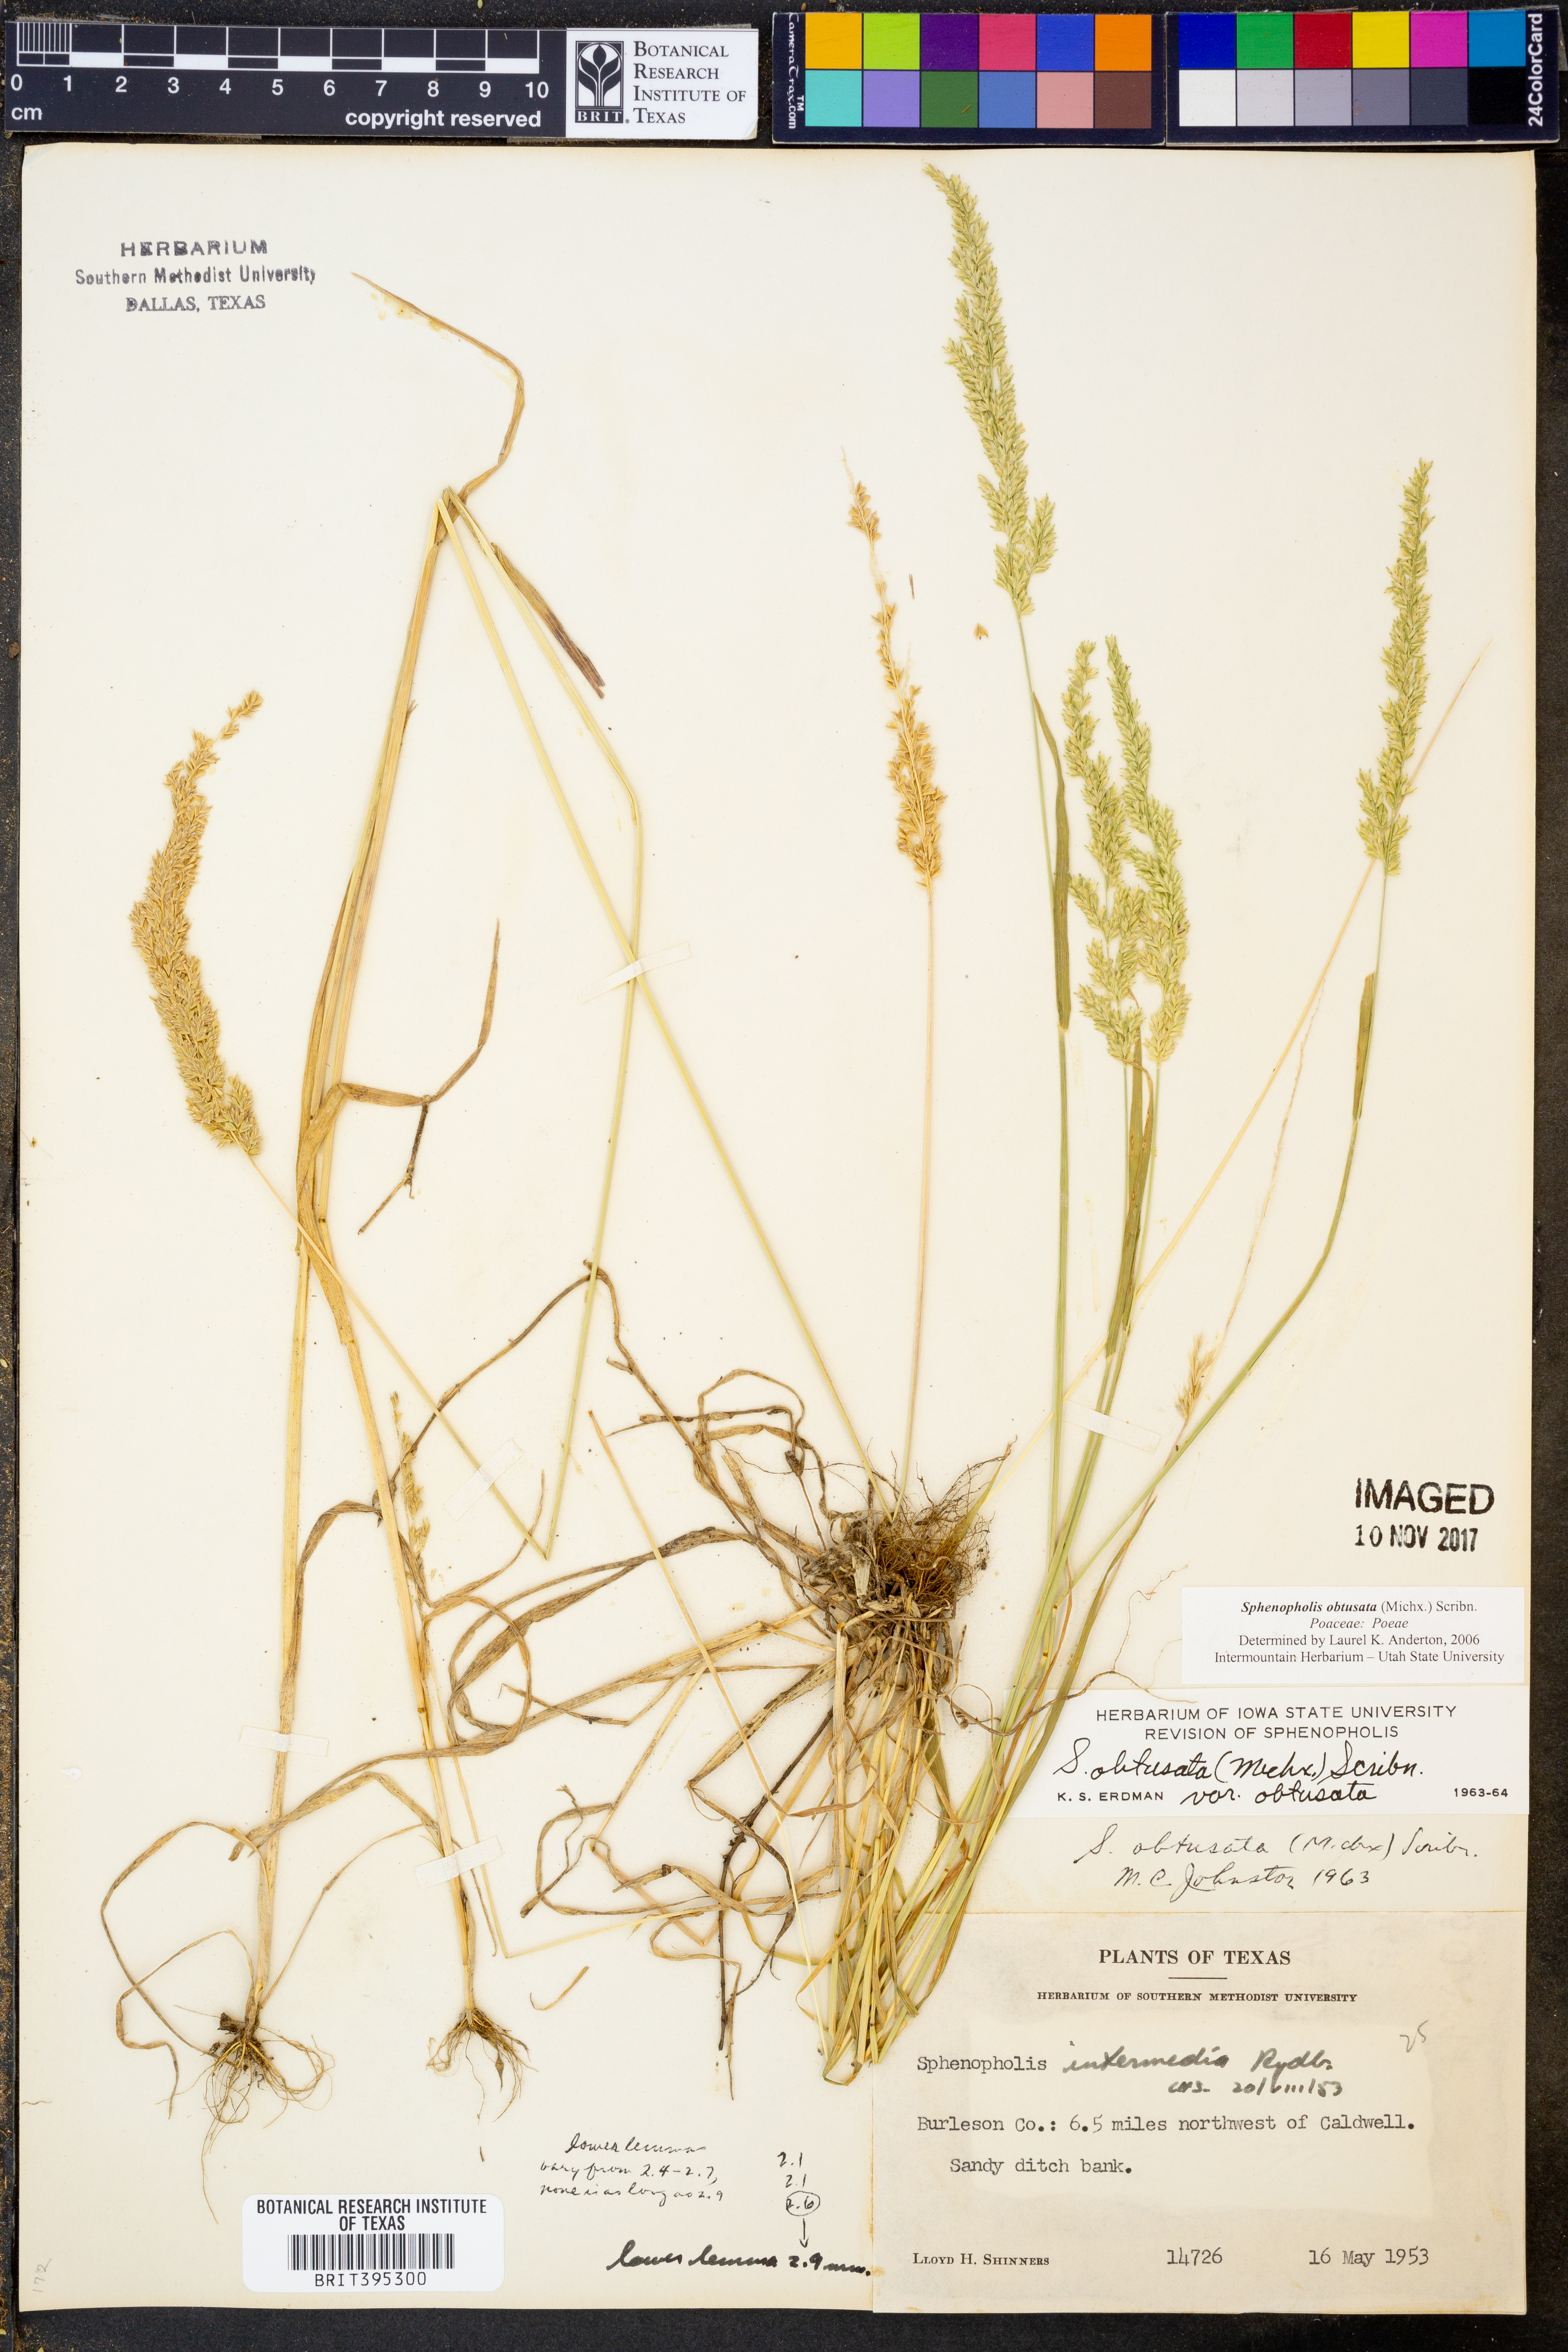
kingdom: Plantae
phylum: Tracheophyta
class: Liliopsida
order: Poales
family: Poaceae
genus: Sphenopholis
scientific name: Sphenopholis
